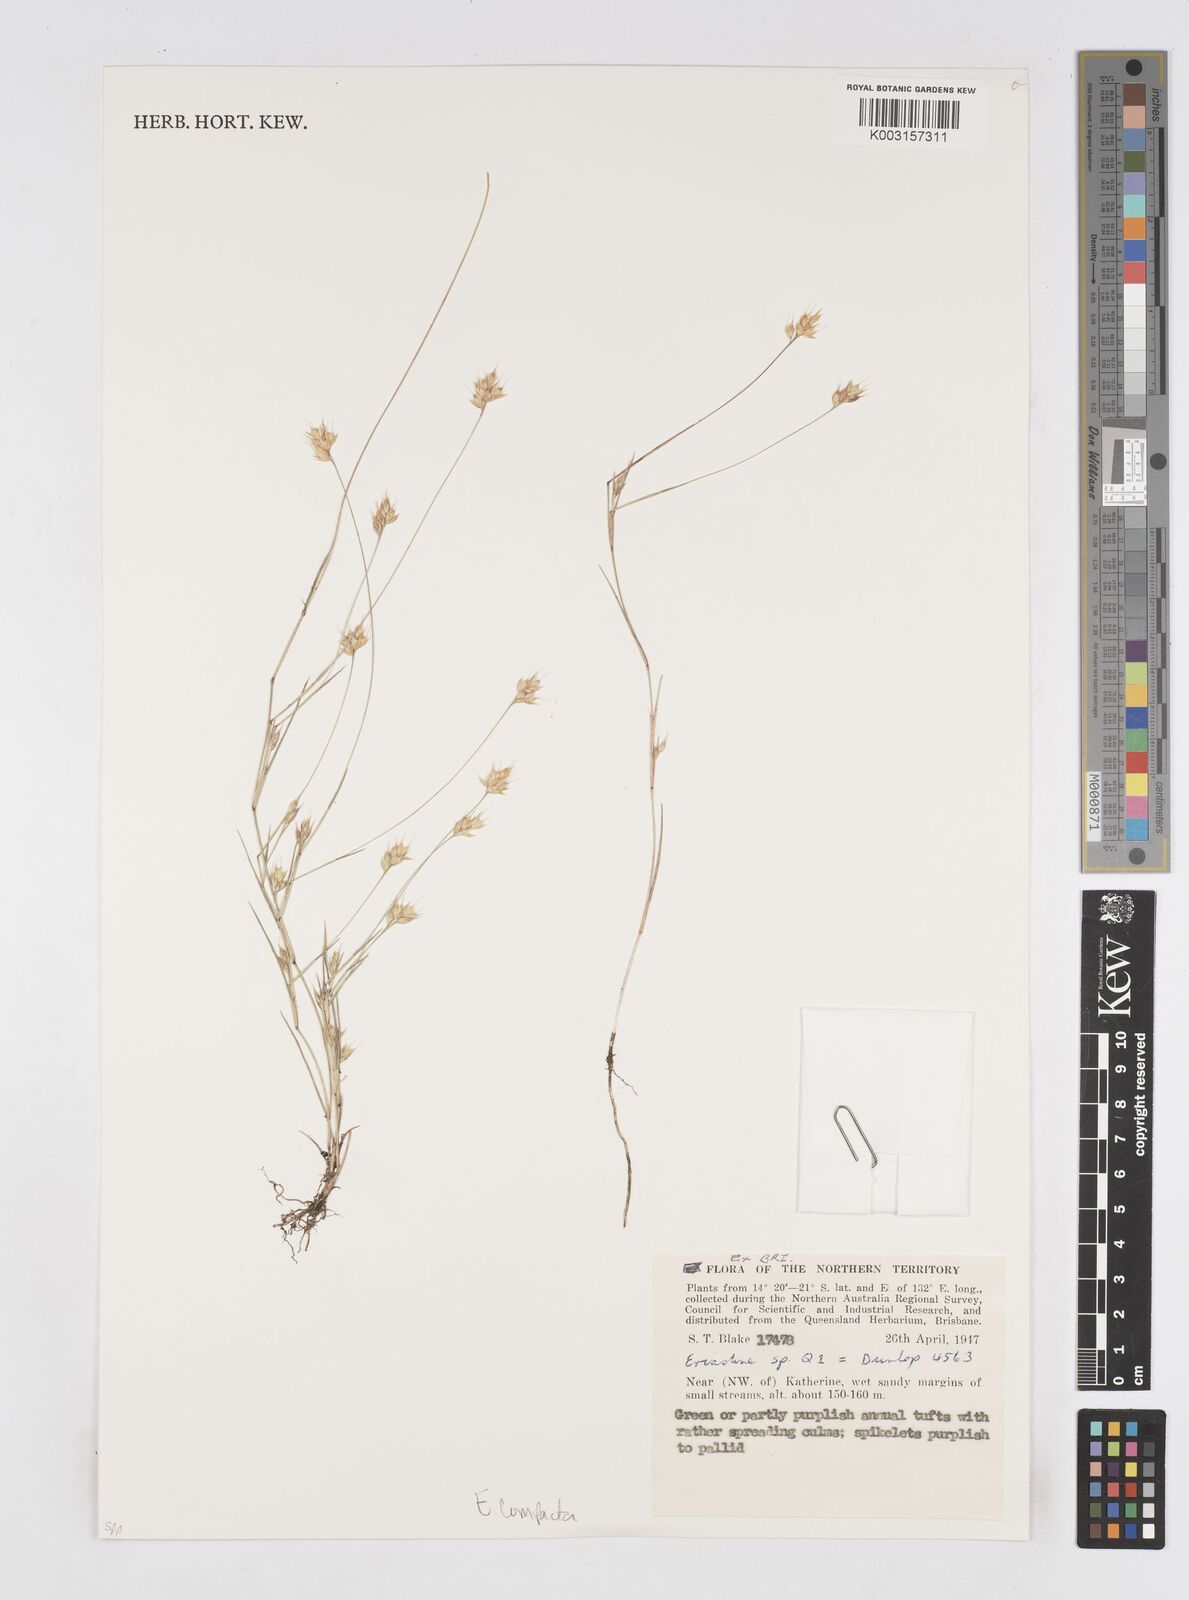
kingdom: Plantae
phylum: Tracheophyta
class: Liliopsida
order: Poales
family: Poaceae
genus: Eriachne
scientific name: Eriachne compacta
